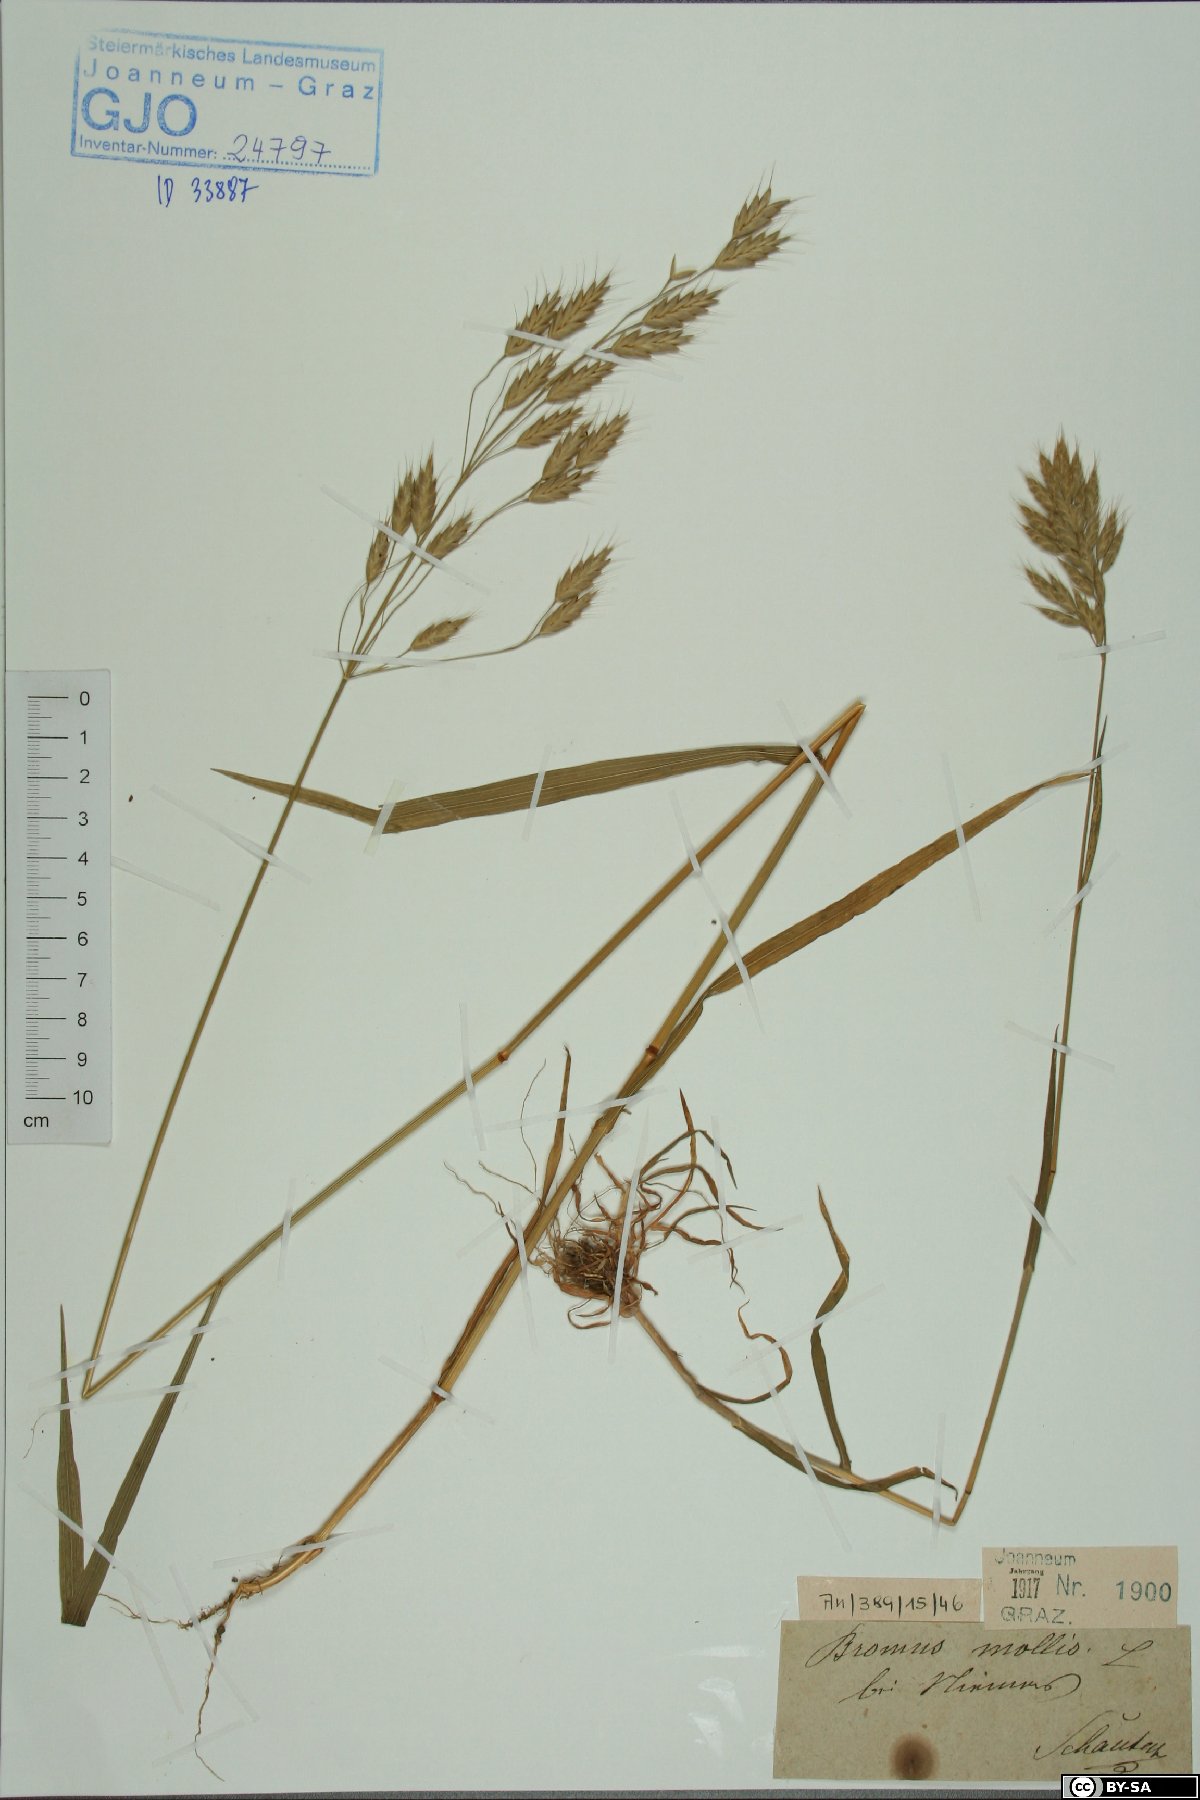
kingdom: Plantae
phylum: Tracheophyta
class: Liliopsida
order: Poales
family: Poaceae
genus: Bromus
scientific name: Bromus hordeaceus
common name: Soft brome
